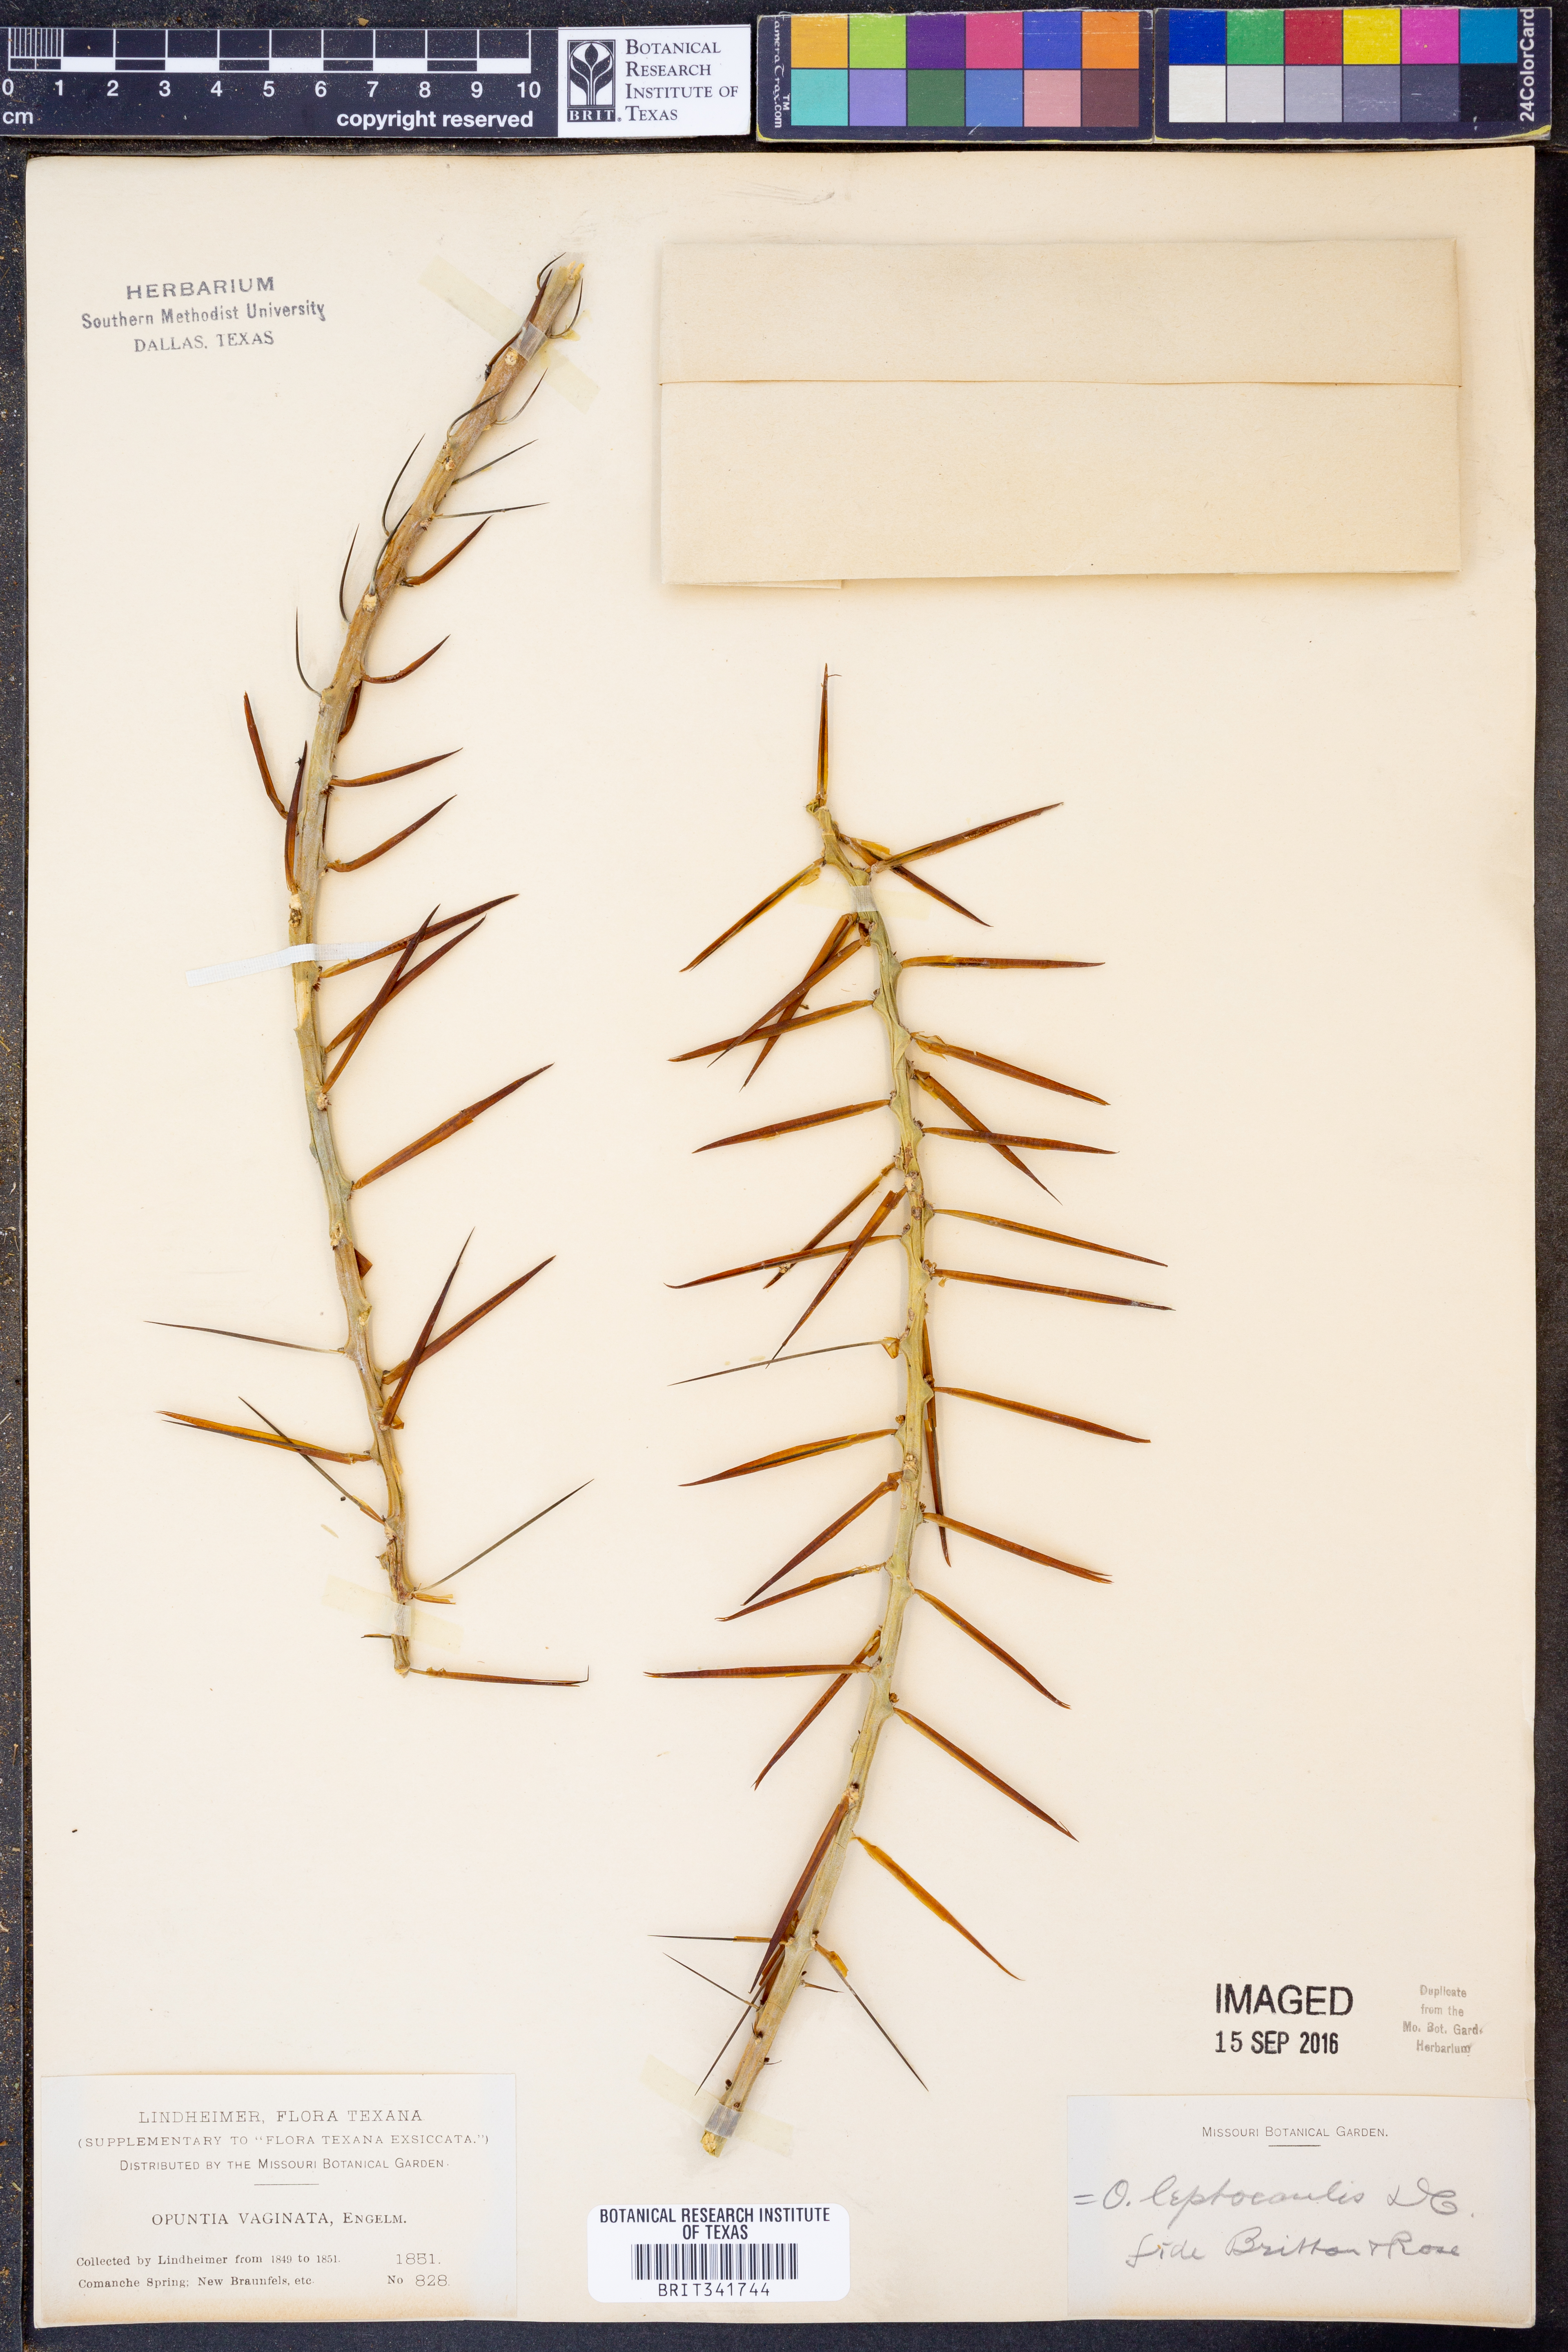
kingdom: Plantae
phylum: Tracheophyta
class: Magnoliopsida
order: Caryophyllales
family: Cactaceae
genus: Cylindropuntia
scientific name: Cylindropuntia leptocaulis
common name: Christmas cactus
